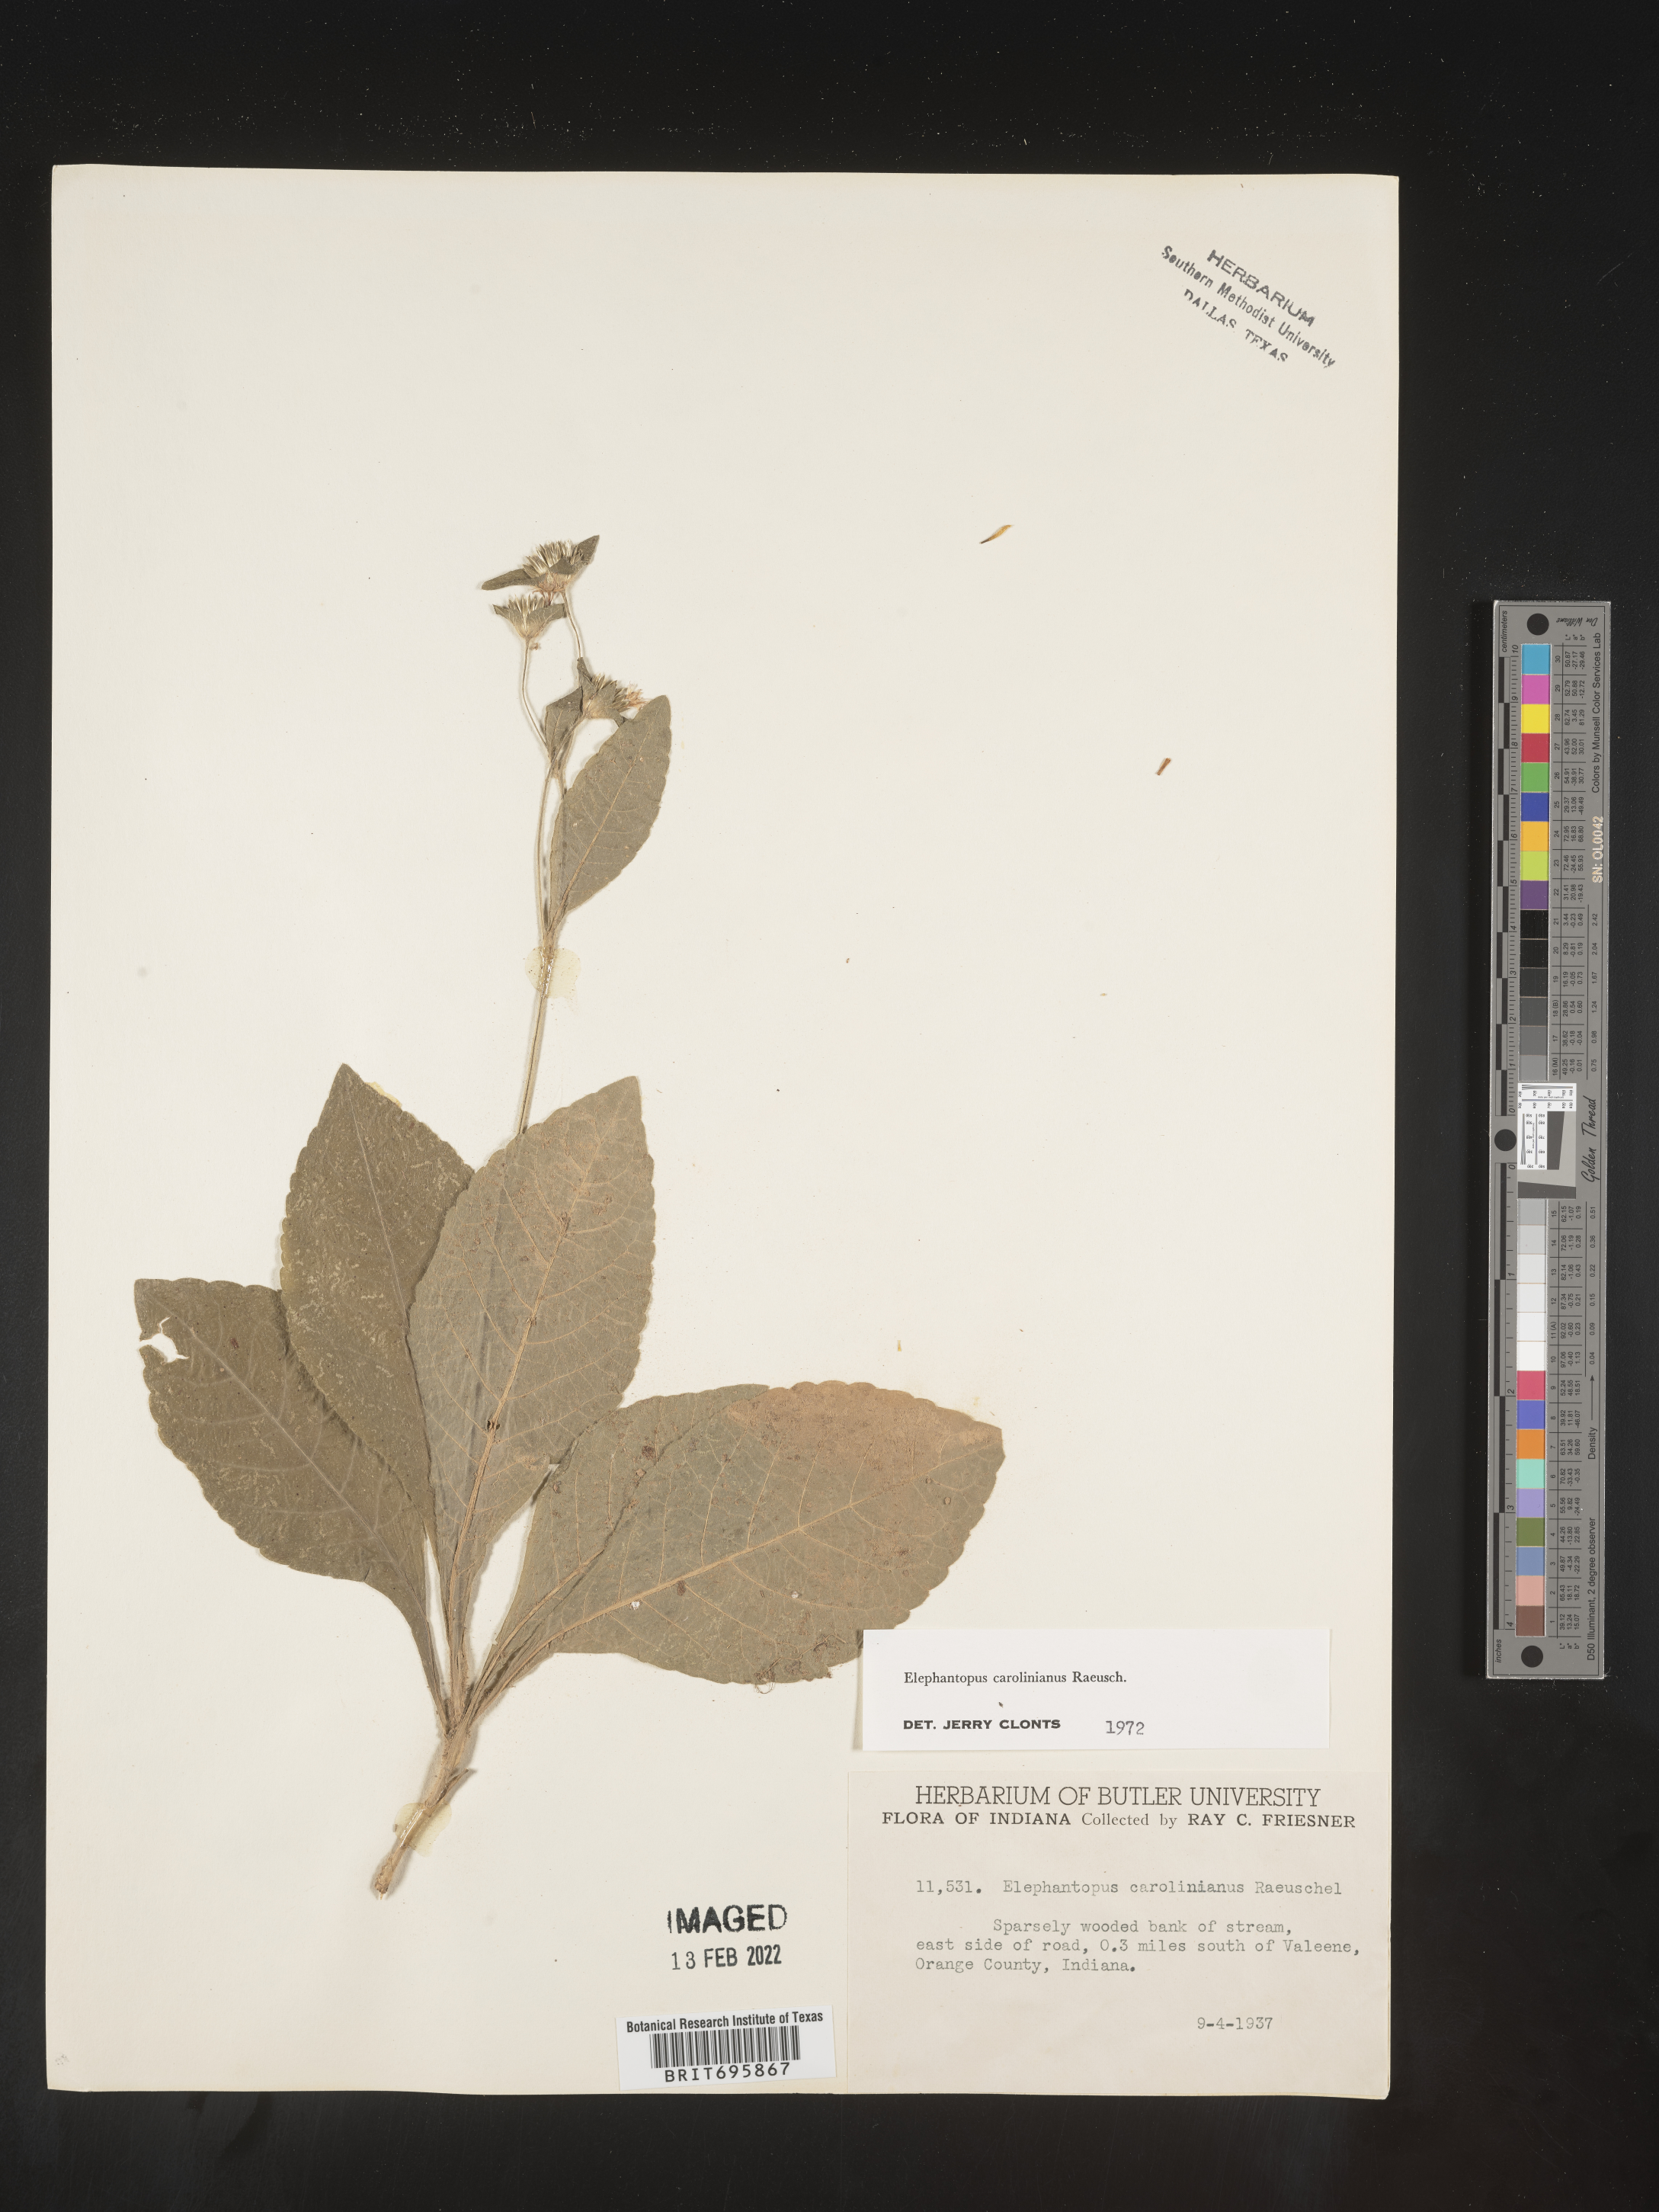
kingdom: Plantae
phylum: Tracheophyta
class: Magnoliopsida
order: Asterales
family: Asteraceae
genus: Elephantopus
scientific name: Elephantopus carolinianus
